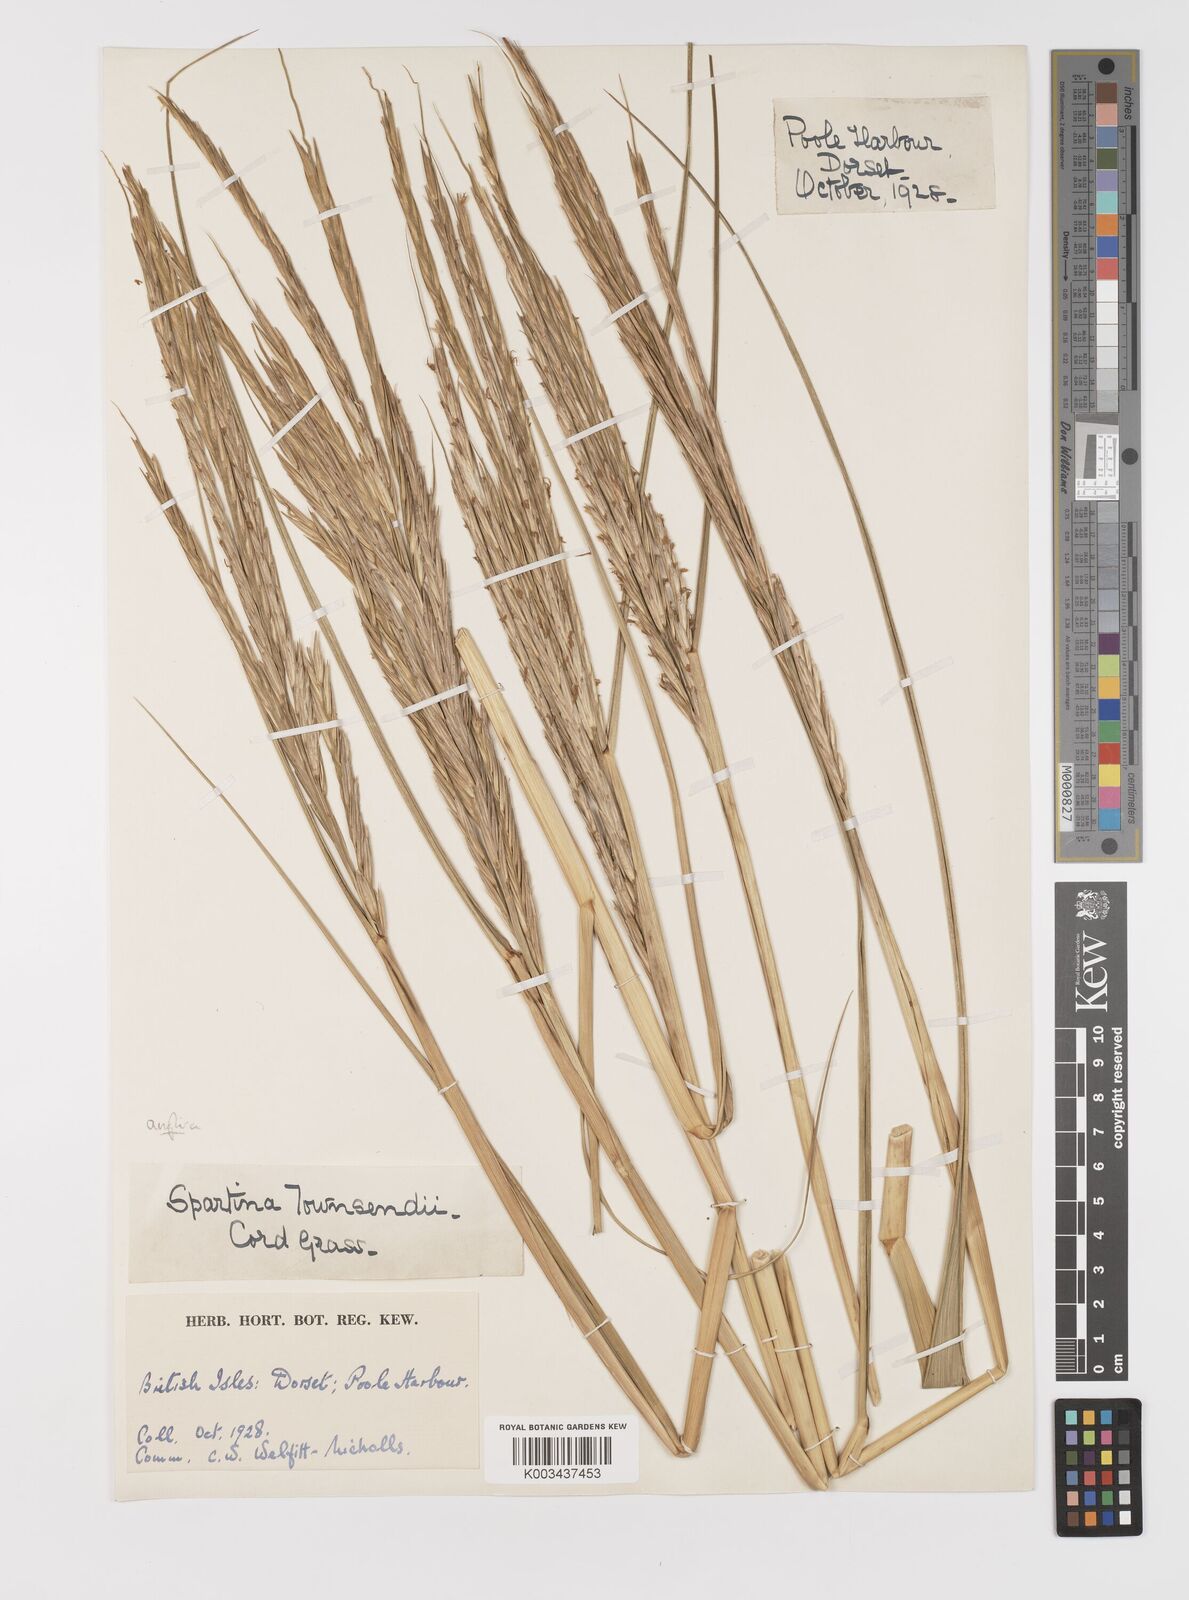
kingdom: Plantae
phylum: Tracheophyta
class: Liliopsida
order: Poales
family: Poaceae
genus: Sporobolus
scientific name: Sporobolus anglicus
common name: English cordgrass
